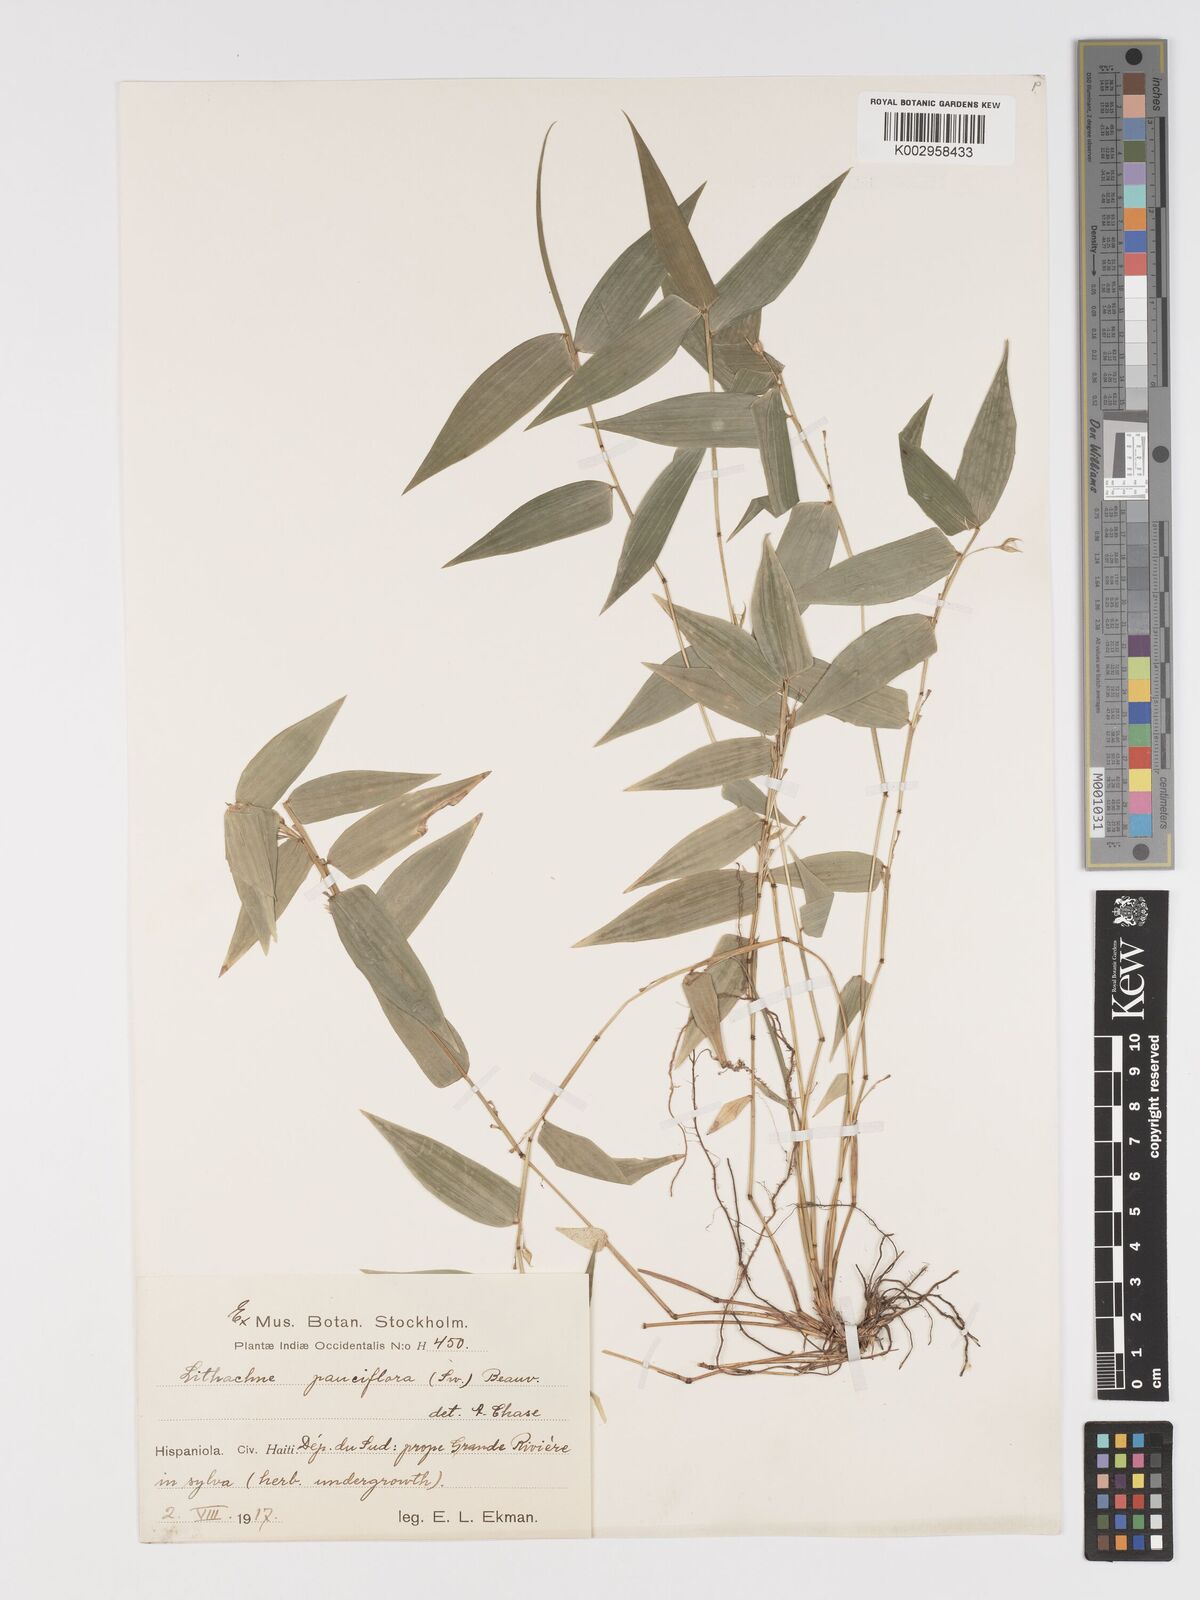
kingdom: Plantae
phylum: Tracheophyta
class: Liliopsida
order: Poales
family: Poaceae
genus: Lithachne
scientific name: Lithachne pauciflora
